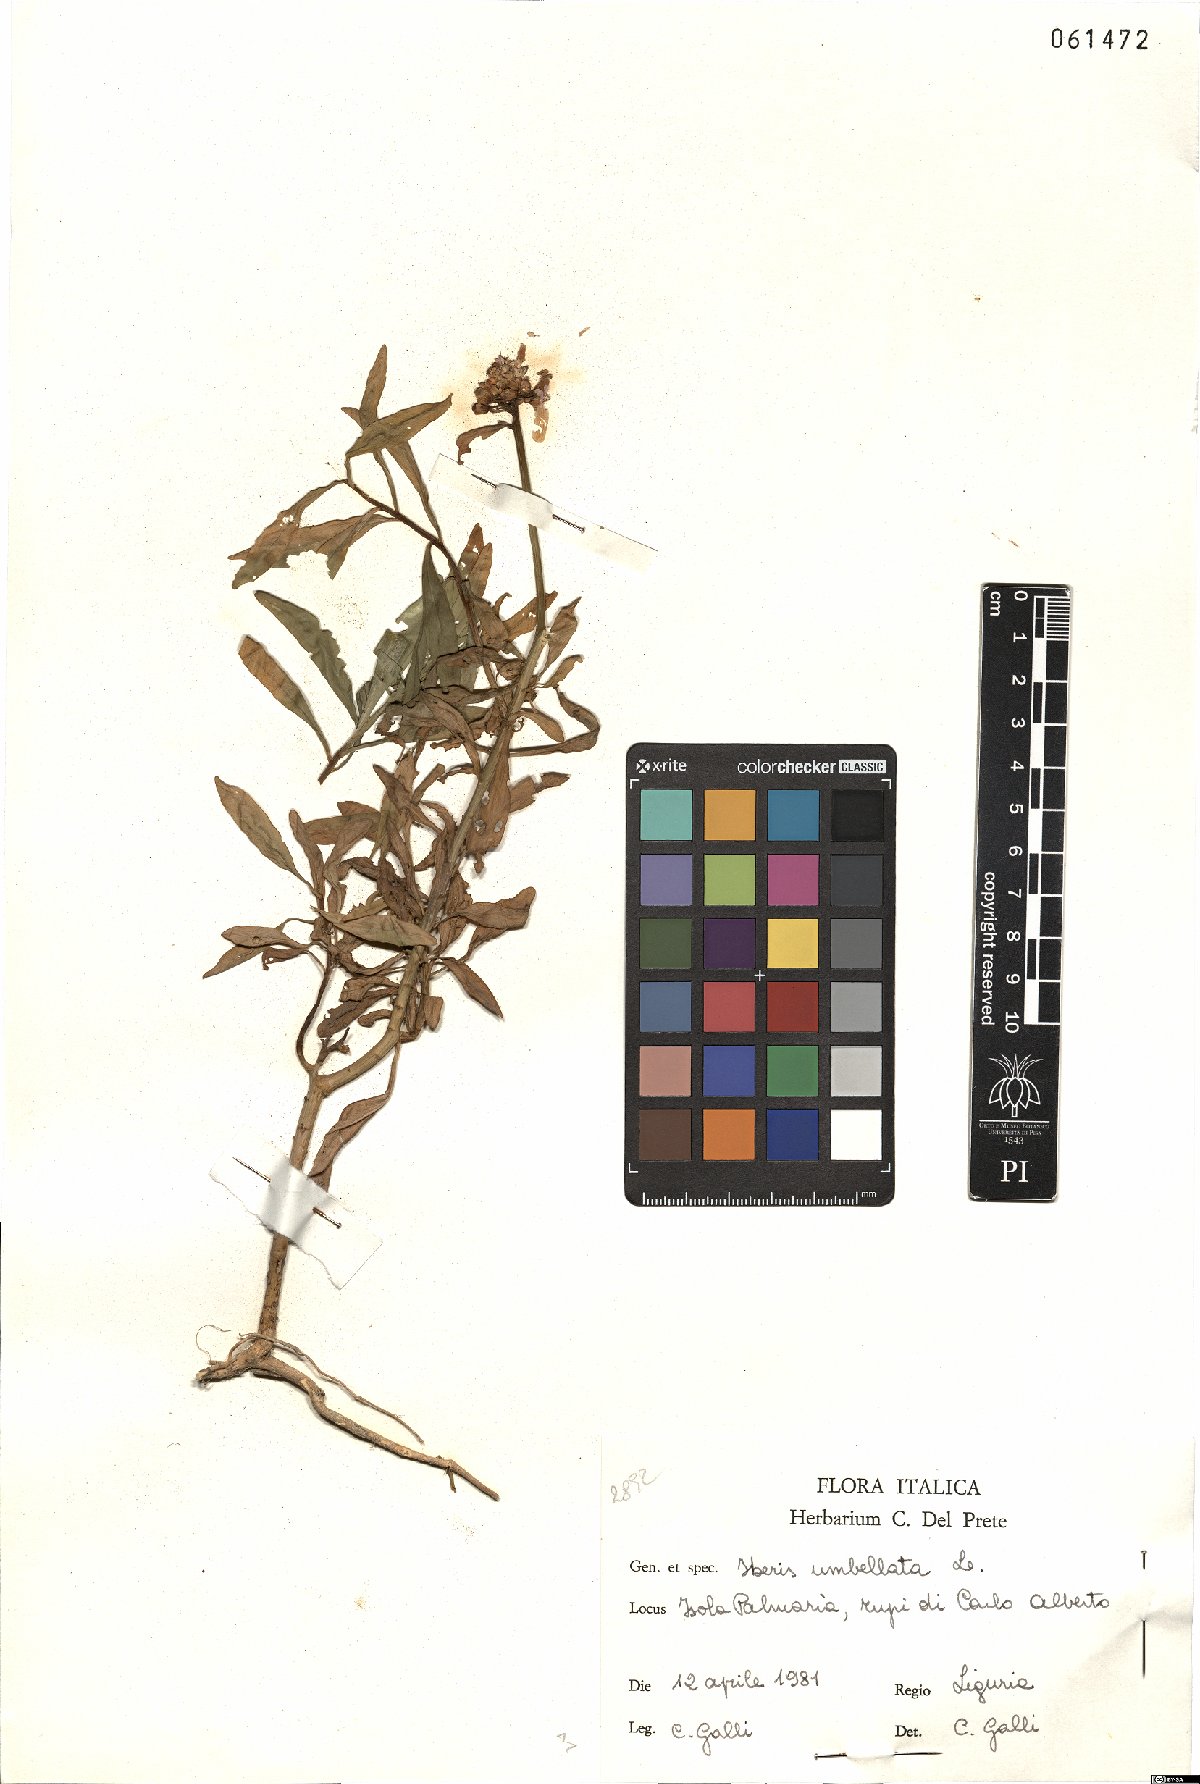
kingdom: Plantae
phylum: Tracheophyta
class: Magnoliopsida
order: Brassicales
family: Brassicaceae
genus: Iberis
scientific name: Iberis umbellata
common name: Globe candytuft
